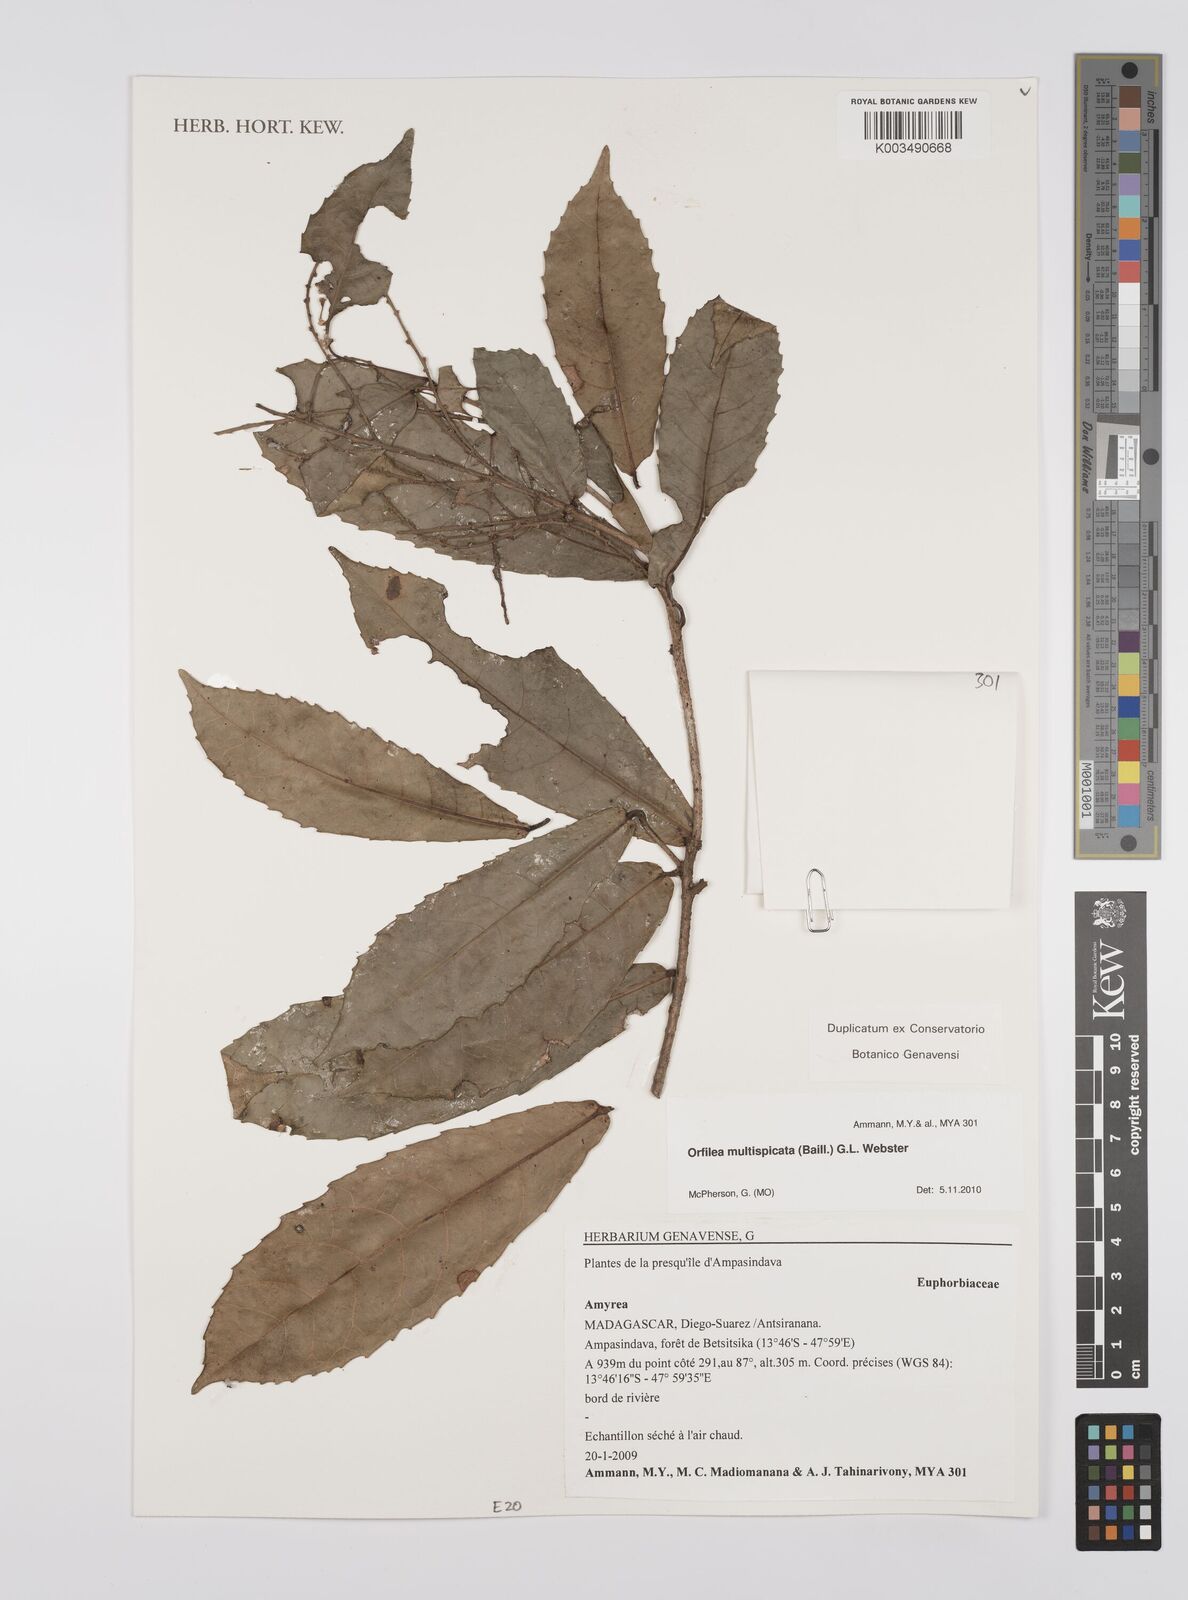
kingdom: Plantae
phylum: Tracheophyta
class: Magnoliopsida
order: Malpighiales
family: Euphorbiaceae
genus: Orfilea
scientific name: Orfilea multispicata
